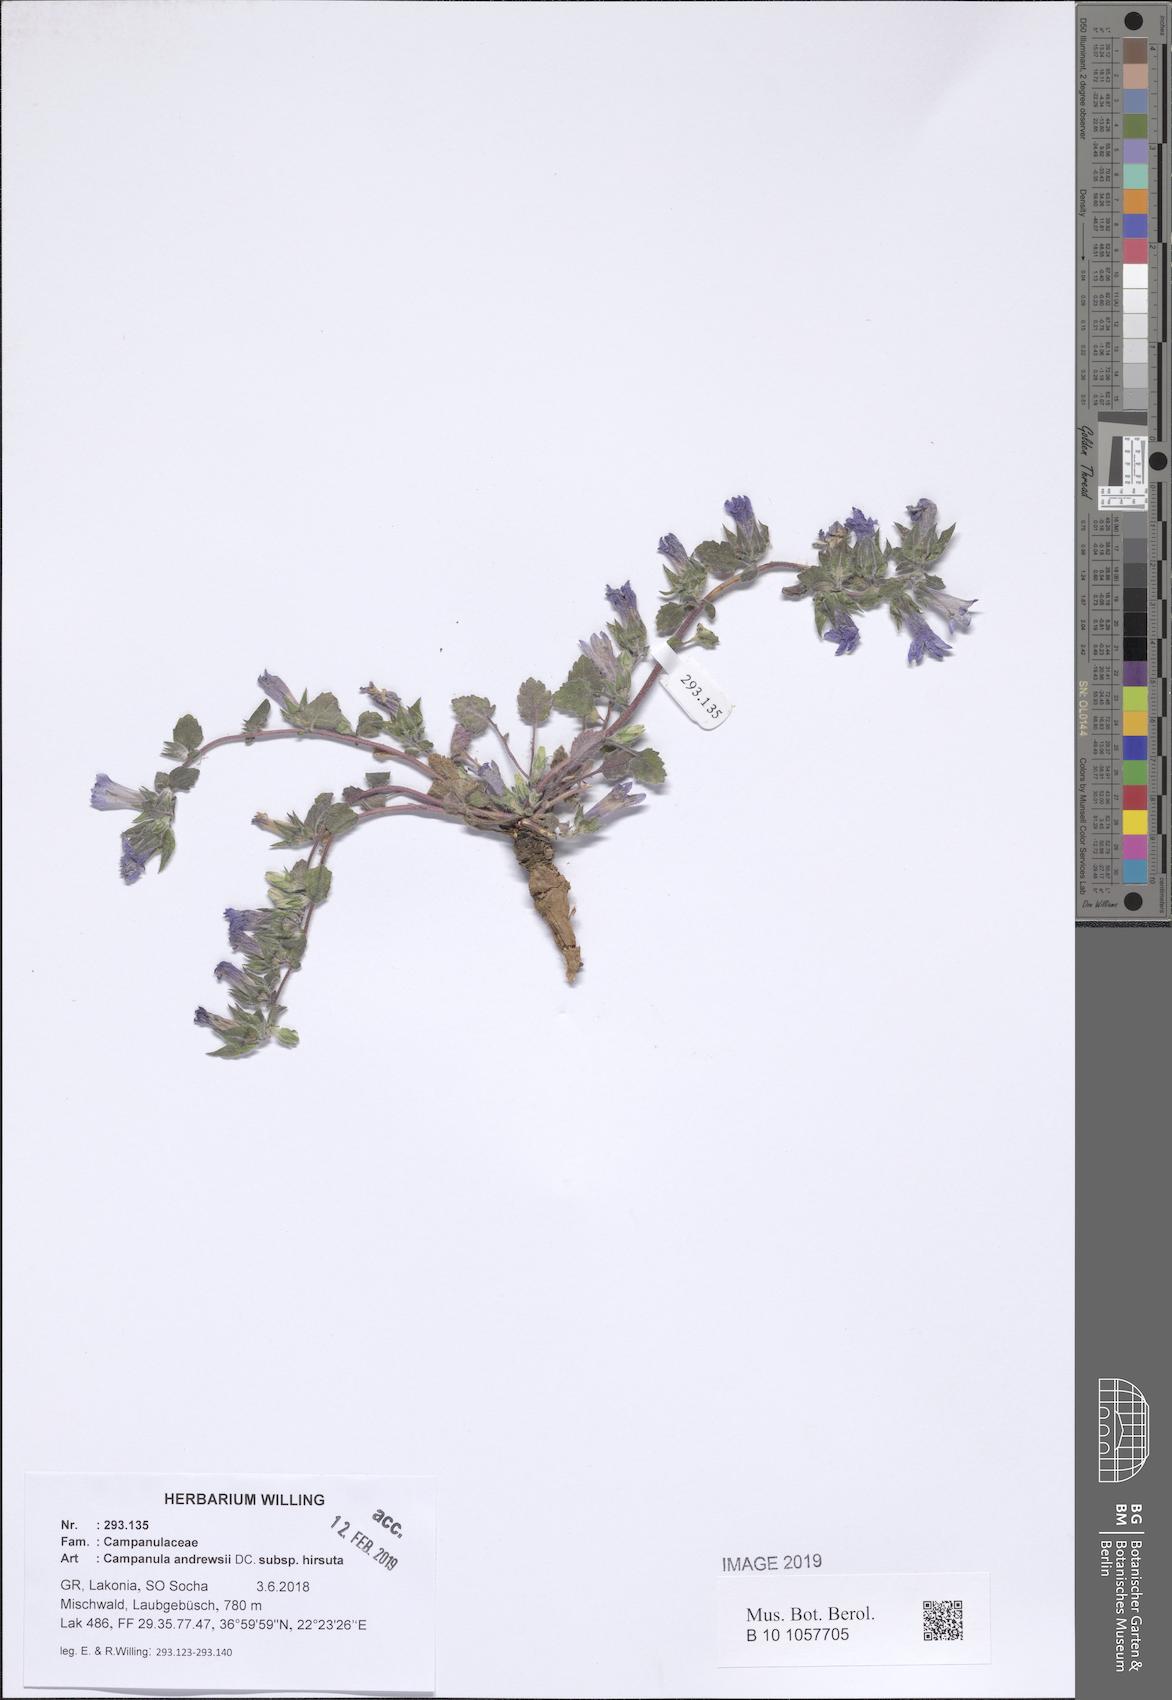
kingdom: Plantae
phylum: Tracheophyta
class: Magnoliopsida
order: Asterales
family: Campanulaceae
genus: Campanula
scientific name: Campanula andrewsii
